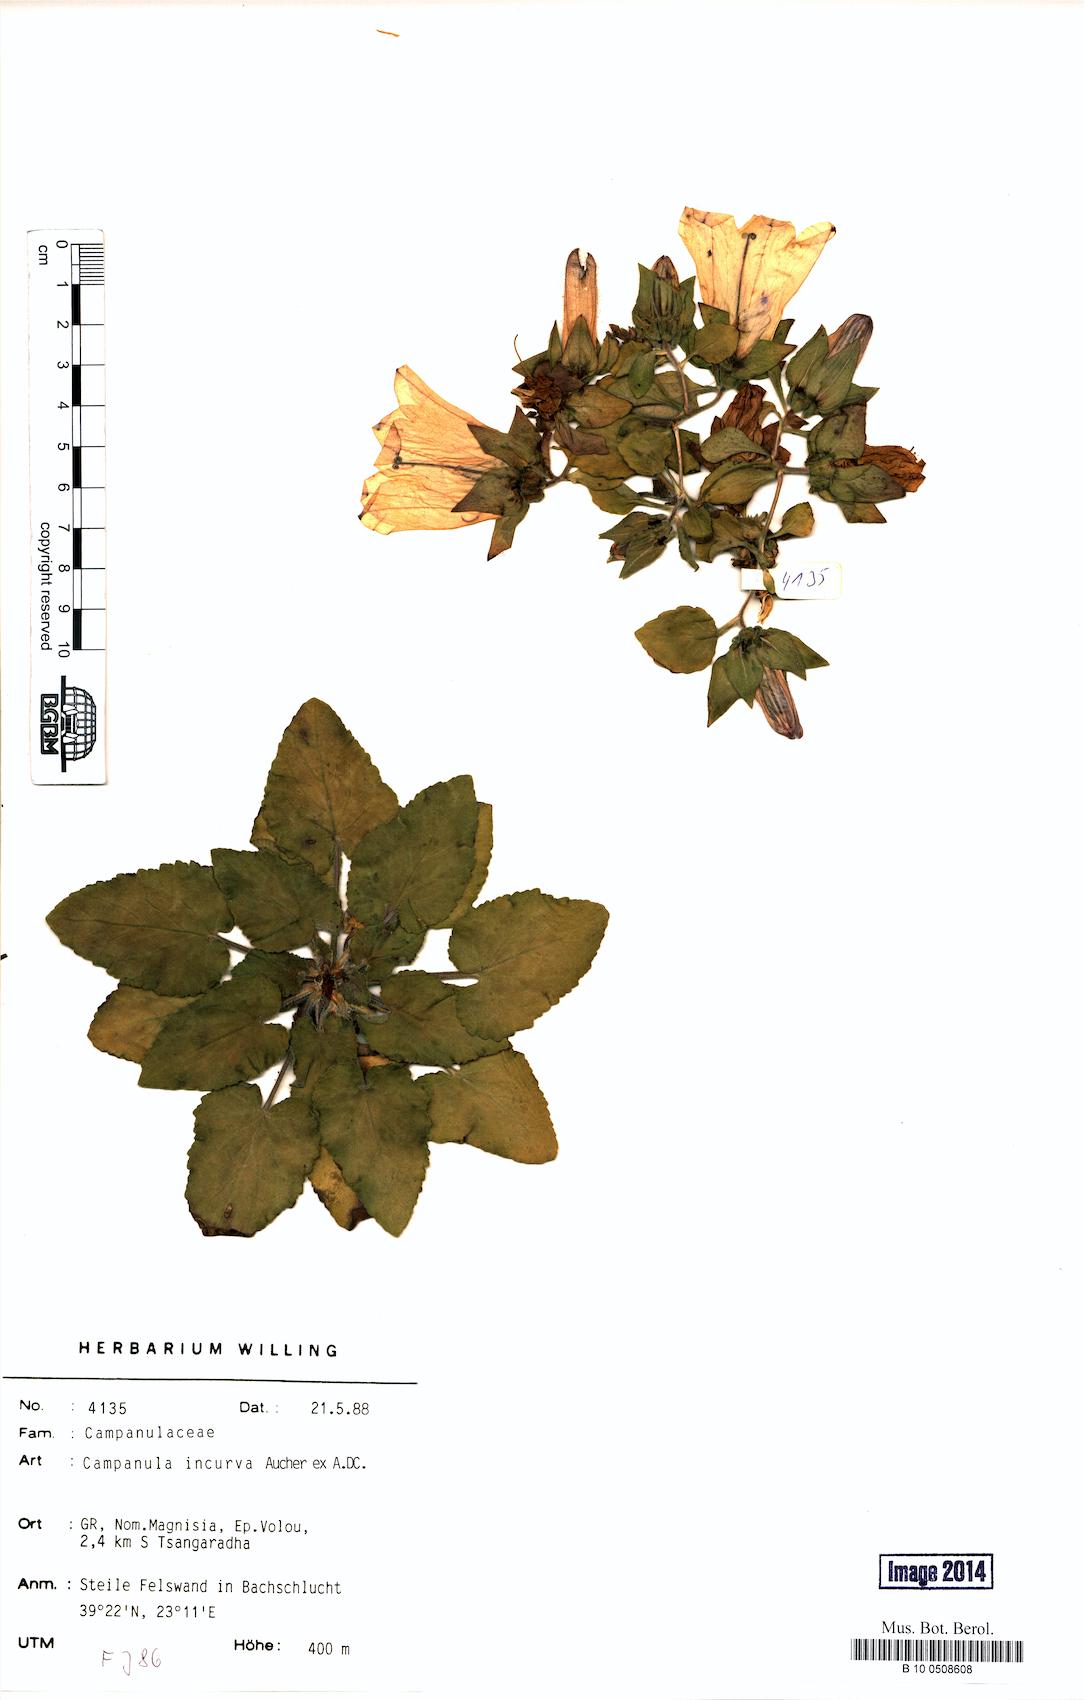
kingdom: Plantae
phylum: Tracheophyta
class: Magnoliopsida
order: Asterales
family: Campanulaceae
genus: Campanula
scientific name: Campanula incurva
